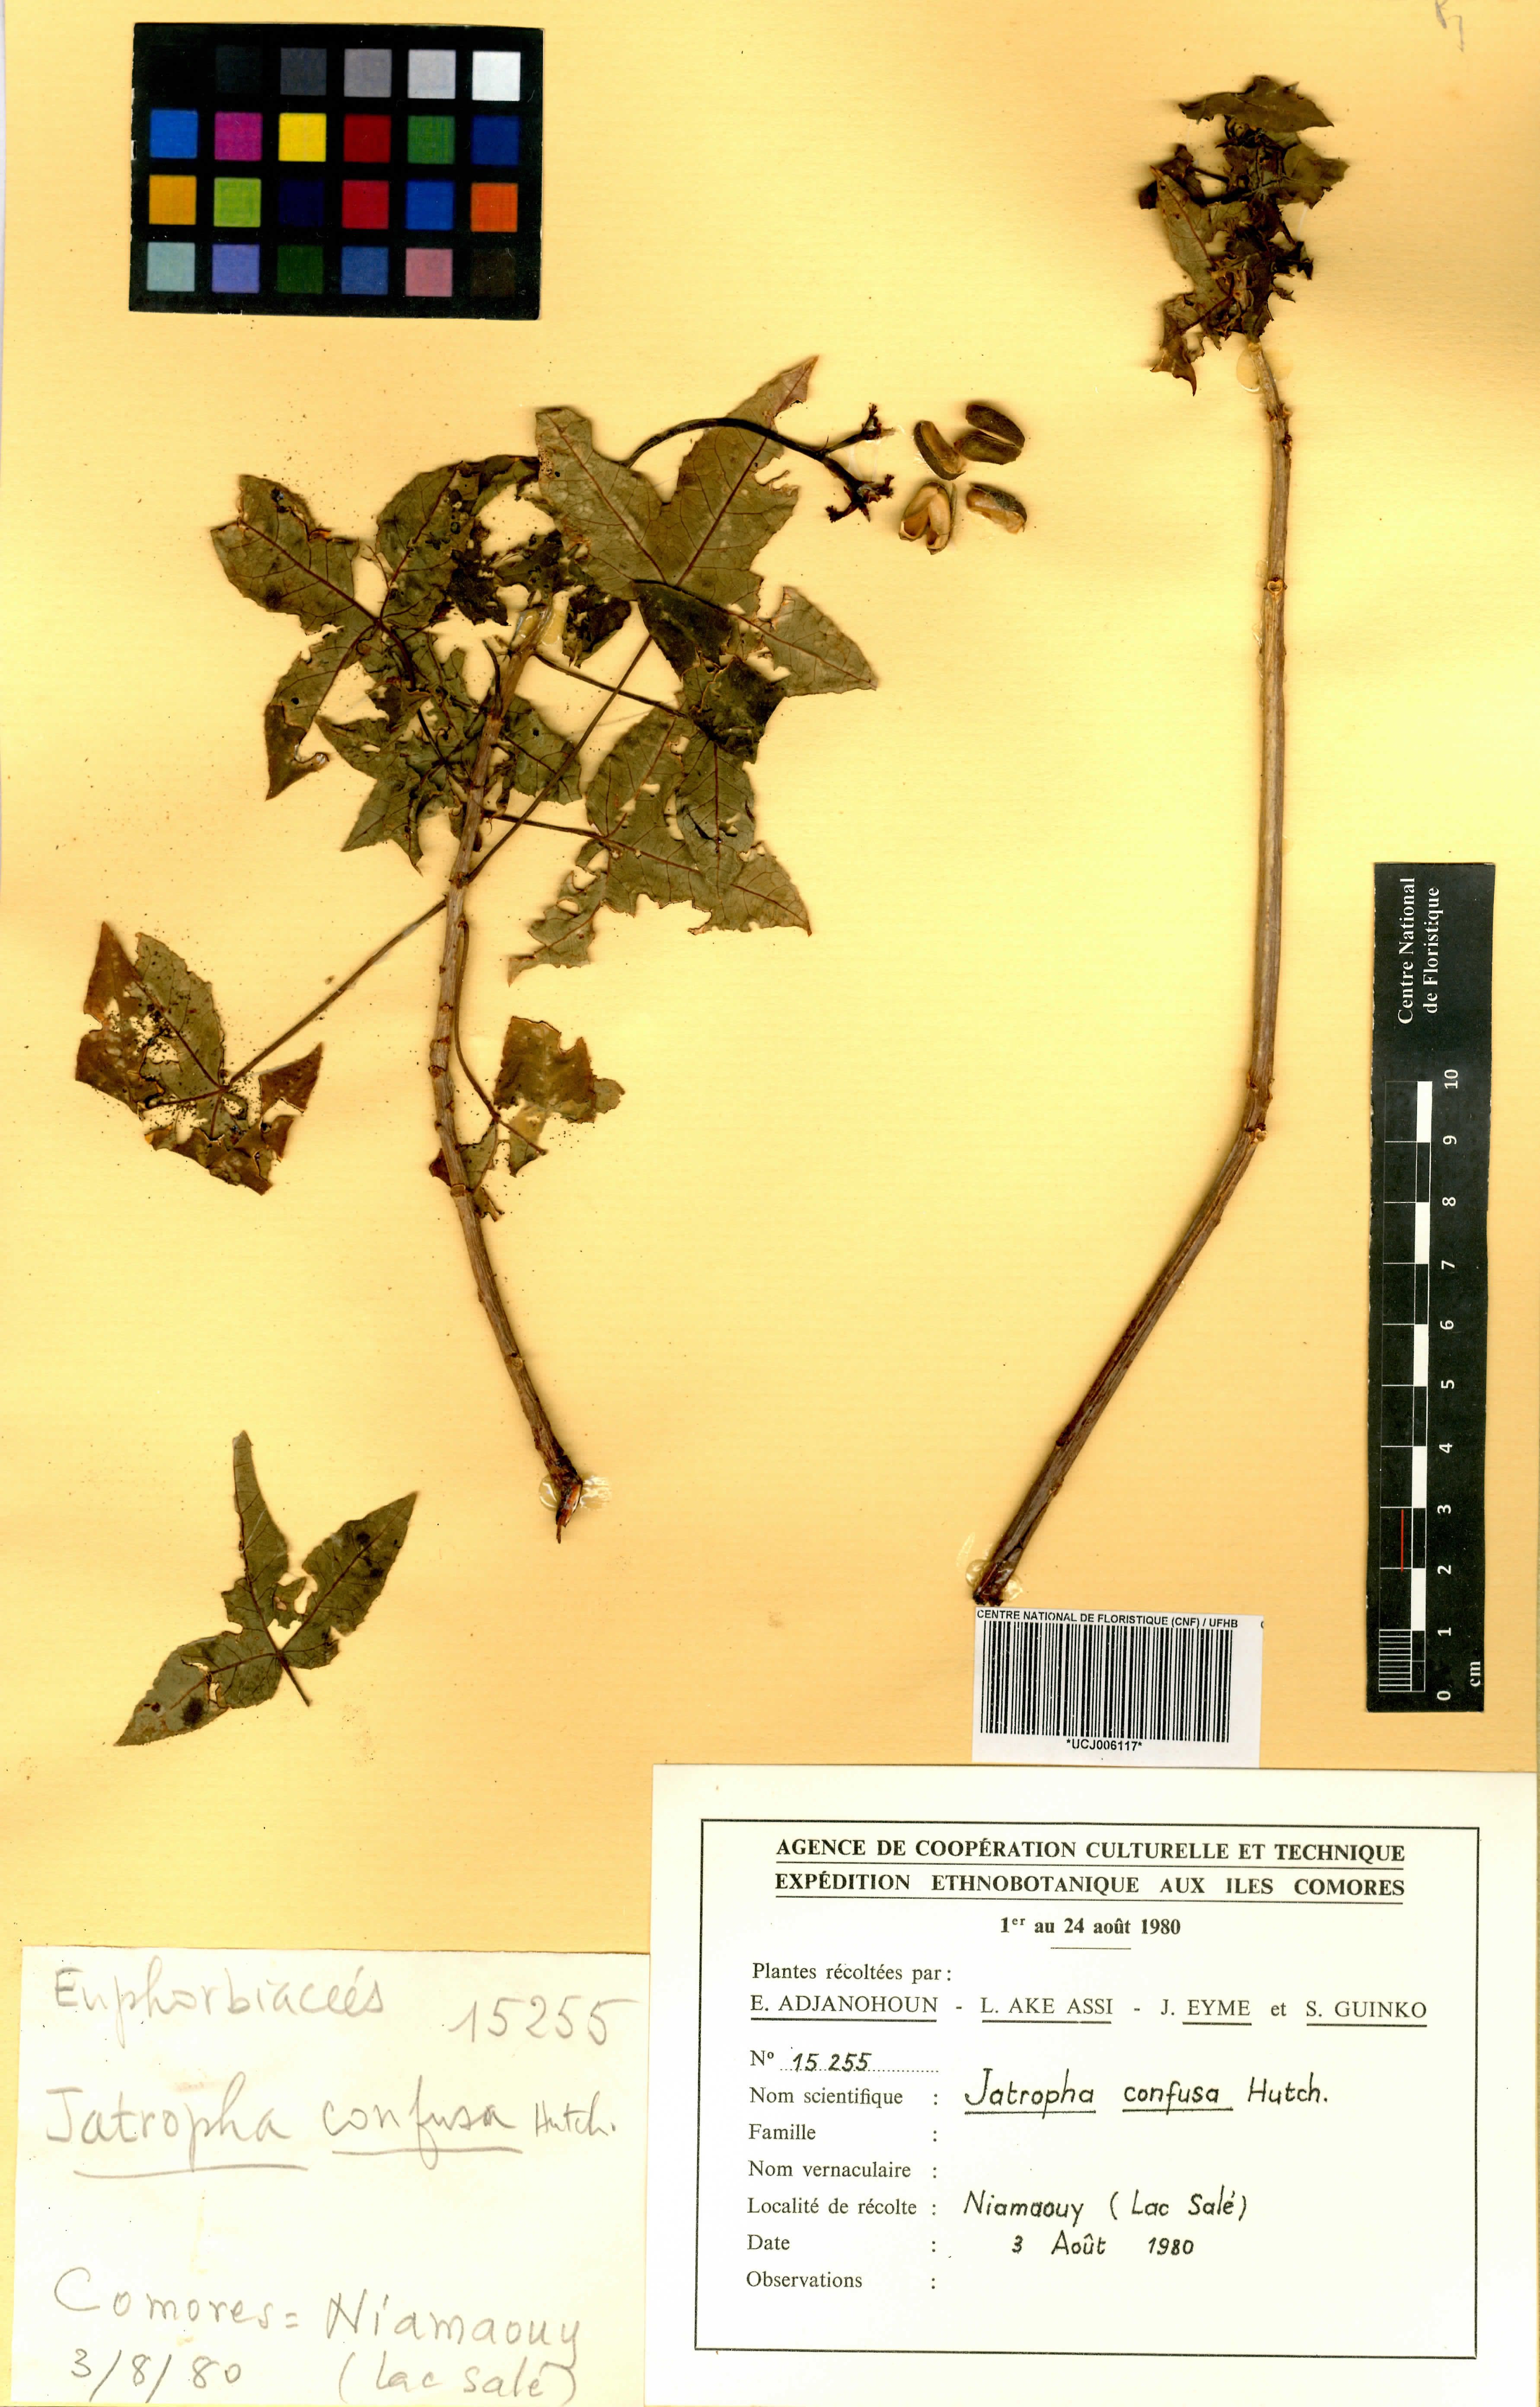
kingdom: Plantae
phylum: Tracheophyta
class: Magnoliopsida
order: Malpighiales
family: Euphorbiaceae
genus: Jatropha
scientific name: Jatropha confusa
